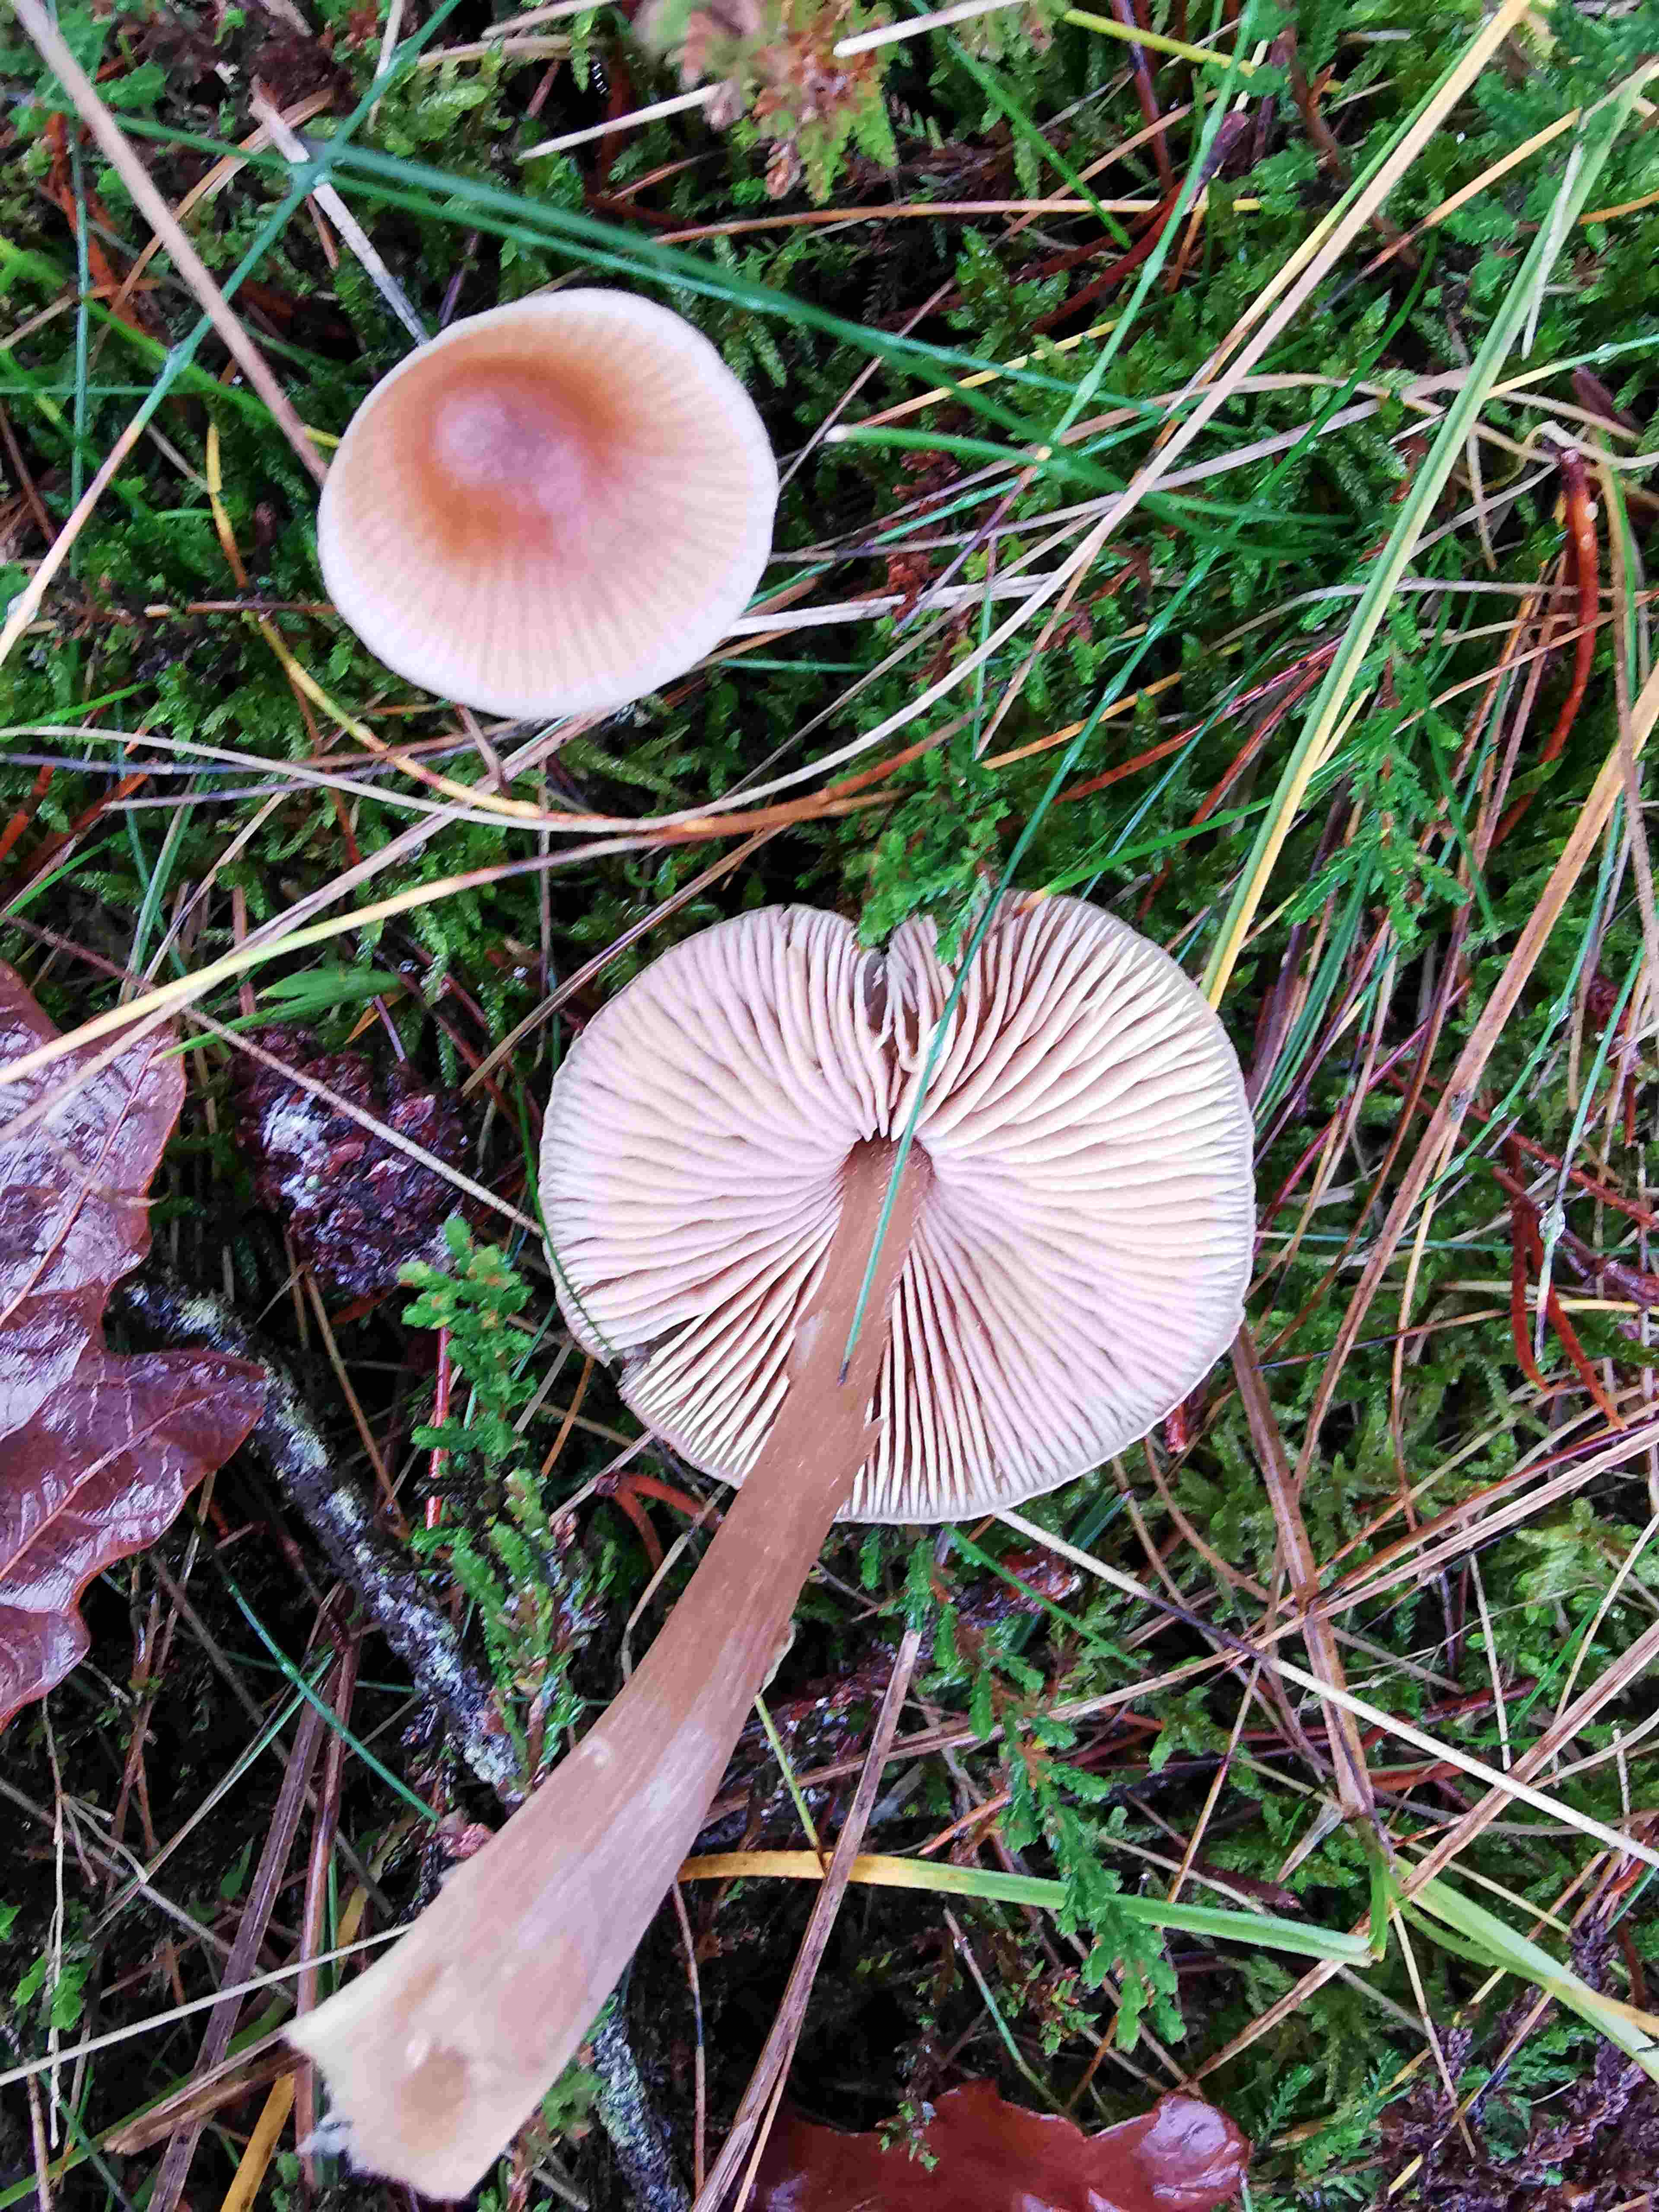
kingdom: Fungi
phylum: Basidiomycota
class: Agaricomycetes
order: Agaricales
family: Entolomataceae
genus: Entoloma
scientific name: Entoloma cetratum
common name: voks-rødblad
